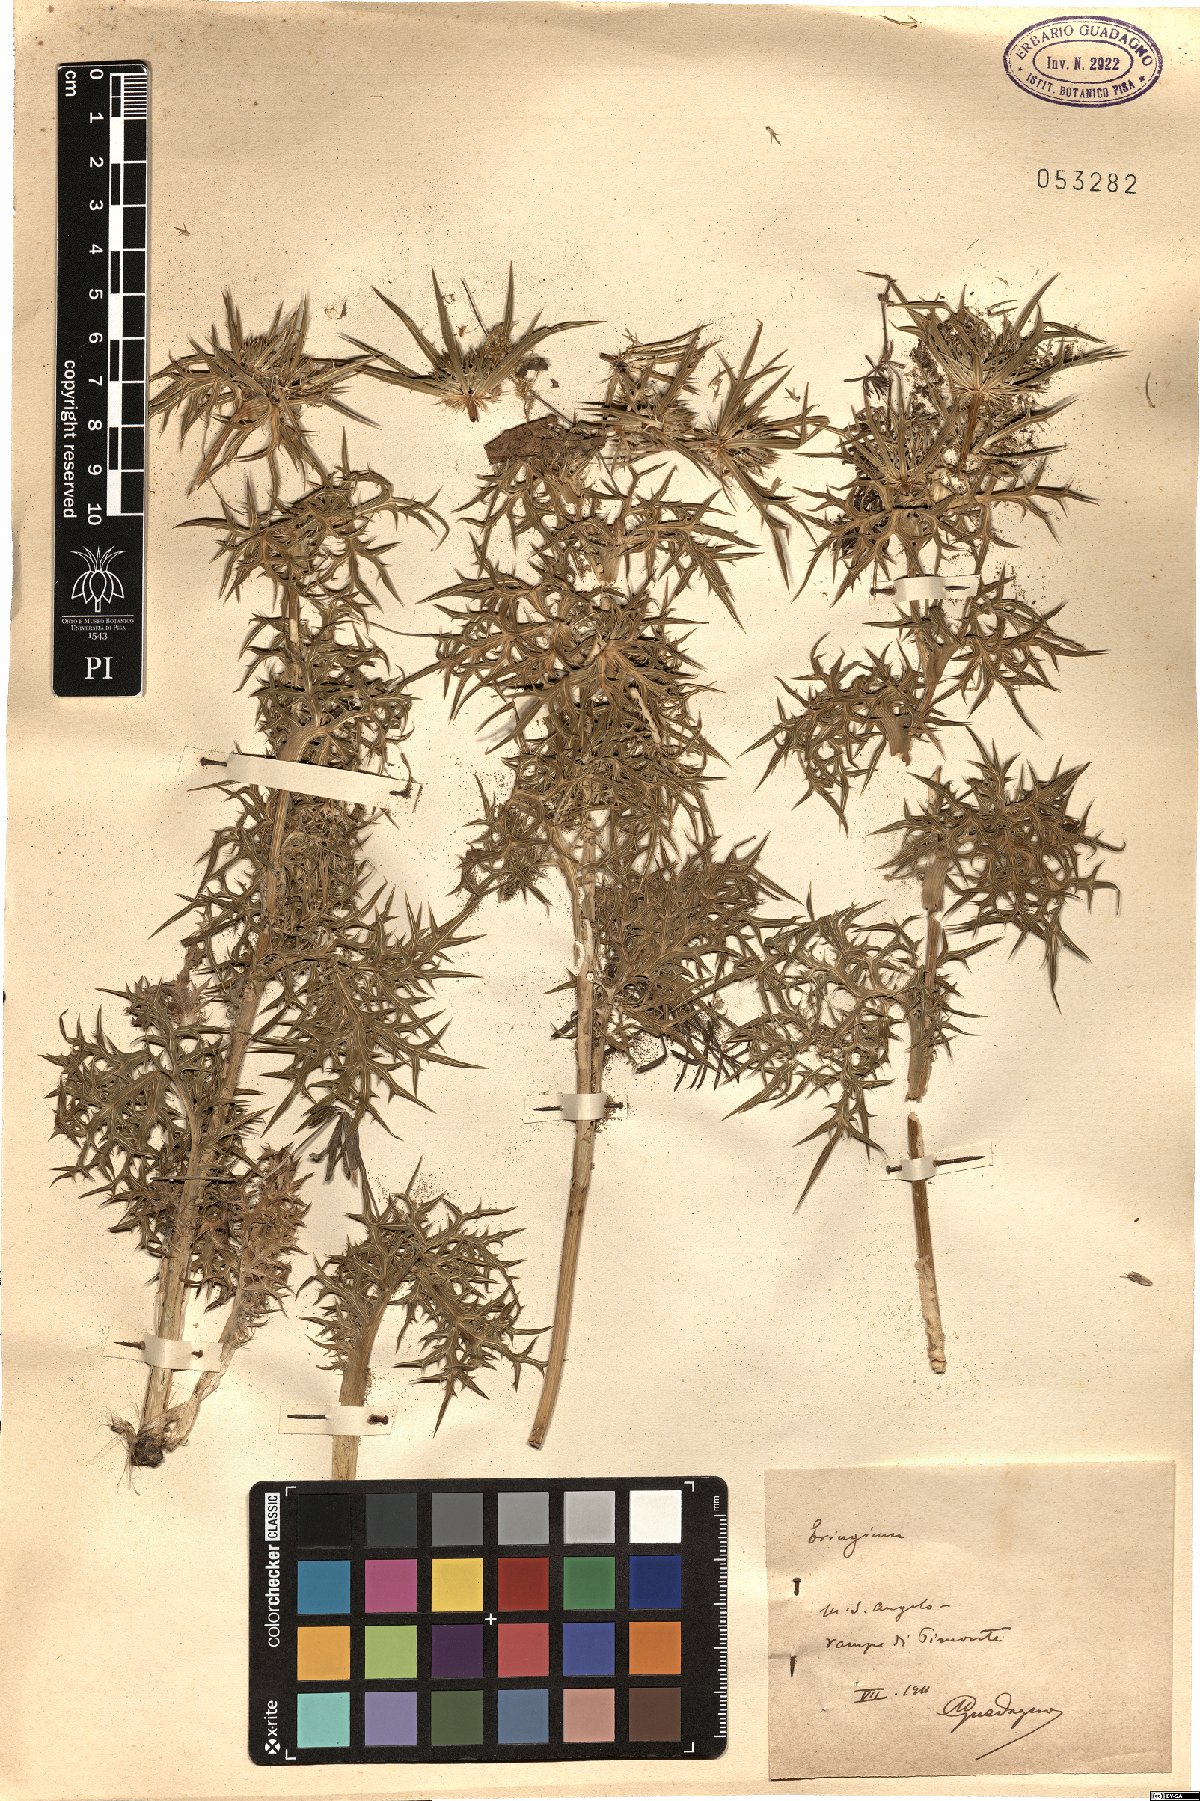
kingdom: Plantae
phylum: Tracheophyta
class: Magnoliopsida
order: Apiales
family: Apiaceae
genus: Eryngium
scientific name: Eryngium
